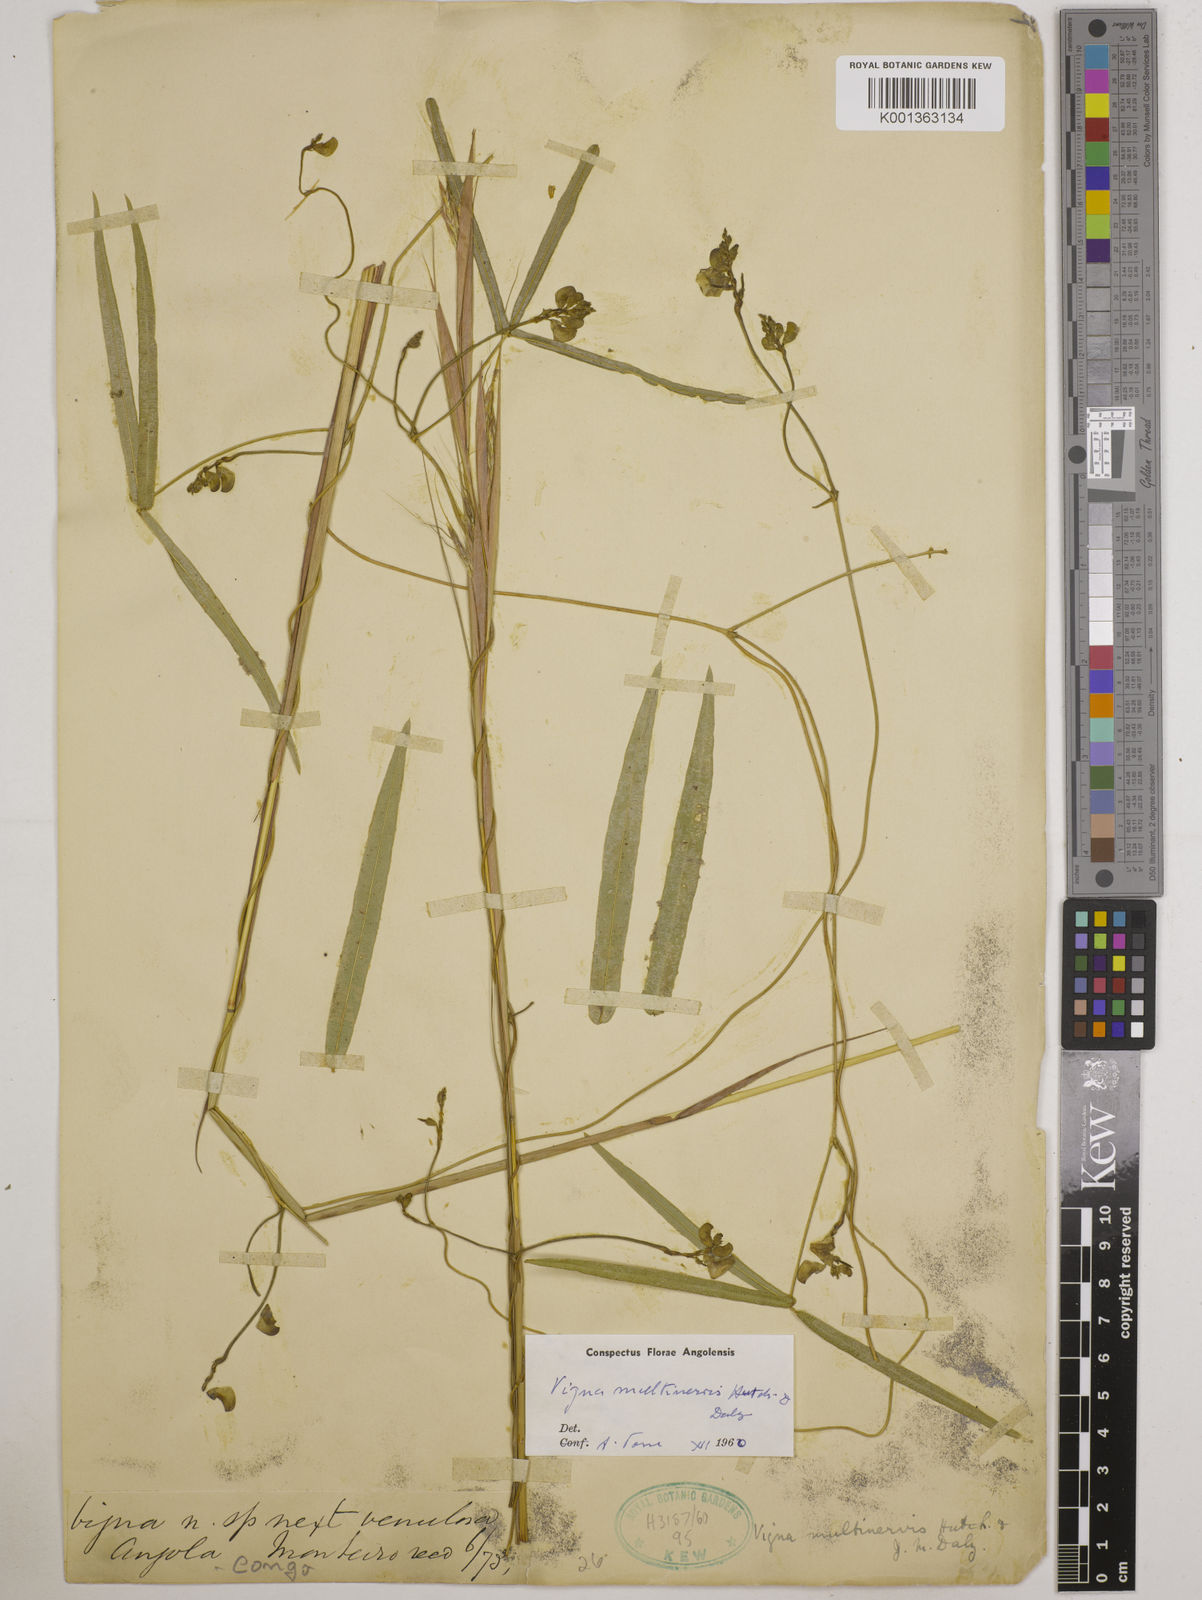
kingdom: Plantae
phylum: Tracheophyta
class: Magnoliopsida
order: Fabales
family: Fabaceae
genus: Vigna
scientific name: Vigna multinervis
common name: Fula-pulaar
